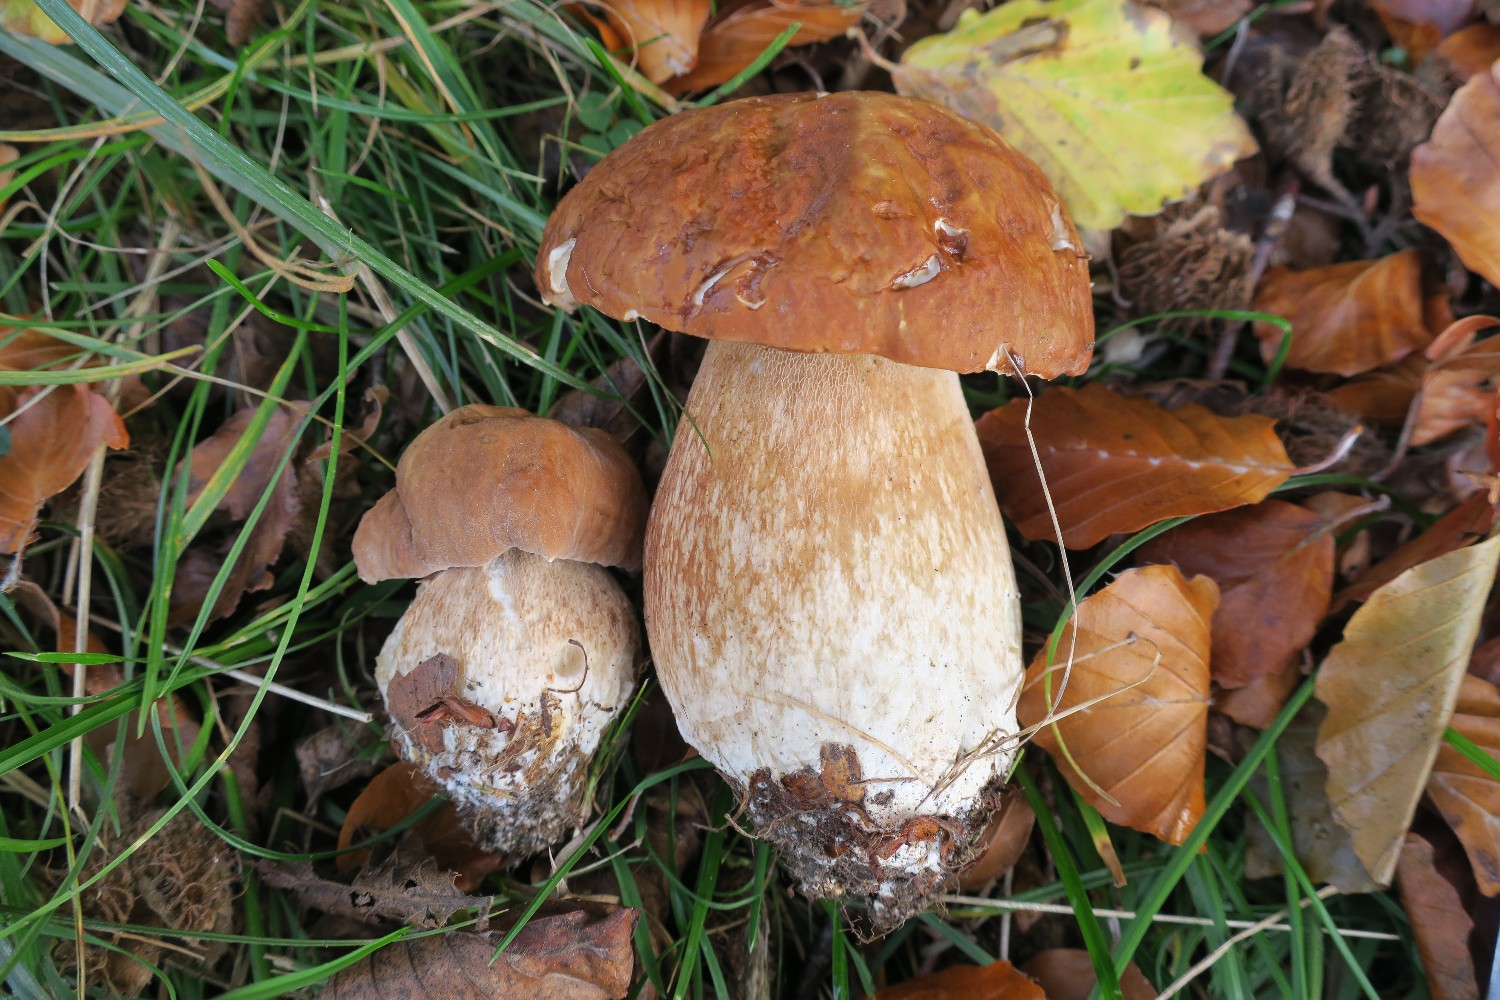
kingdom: Fungi
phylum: Basidiomycota
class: Agaricomycetes
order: Boletales
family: Boletaceae
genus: Boletus
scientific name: Boletus edulis
